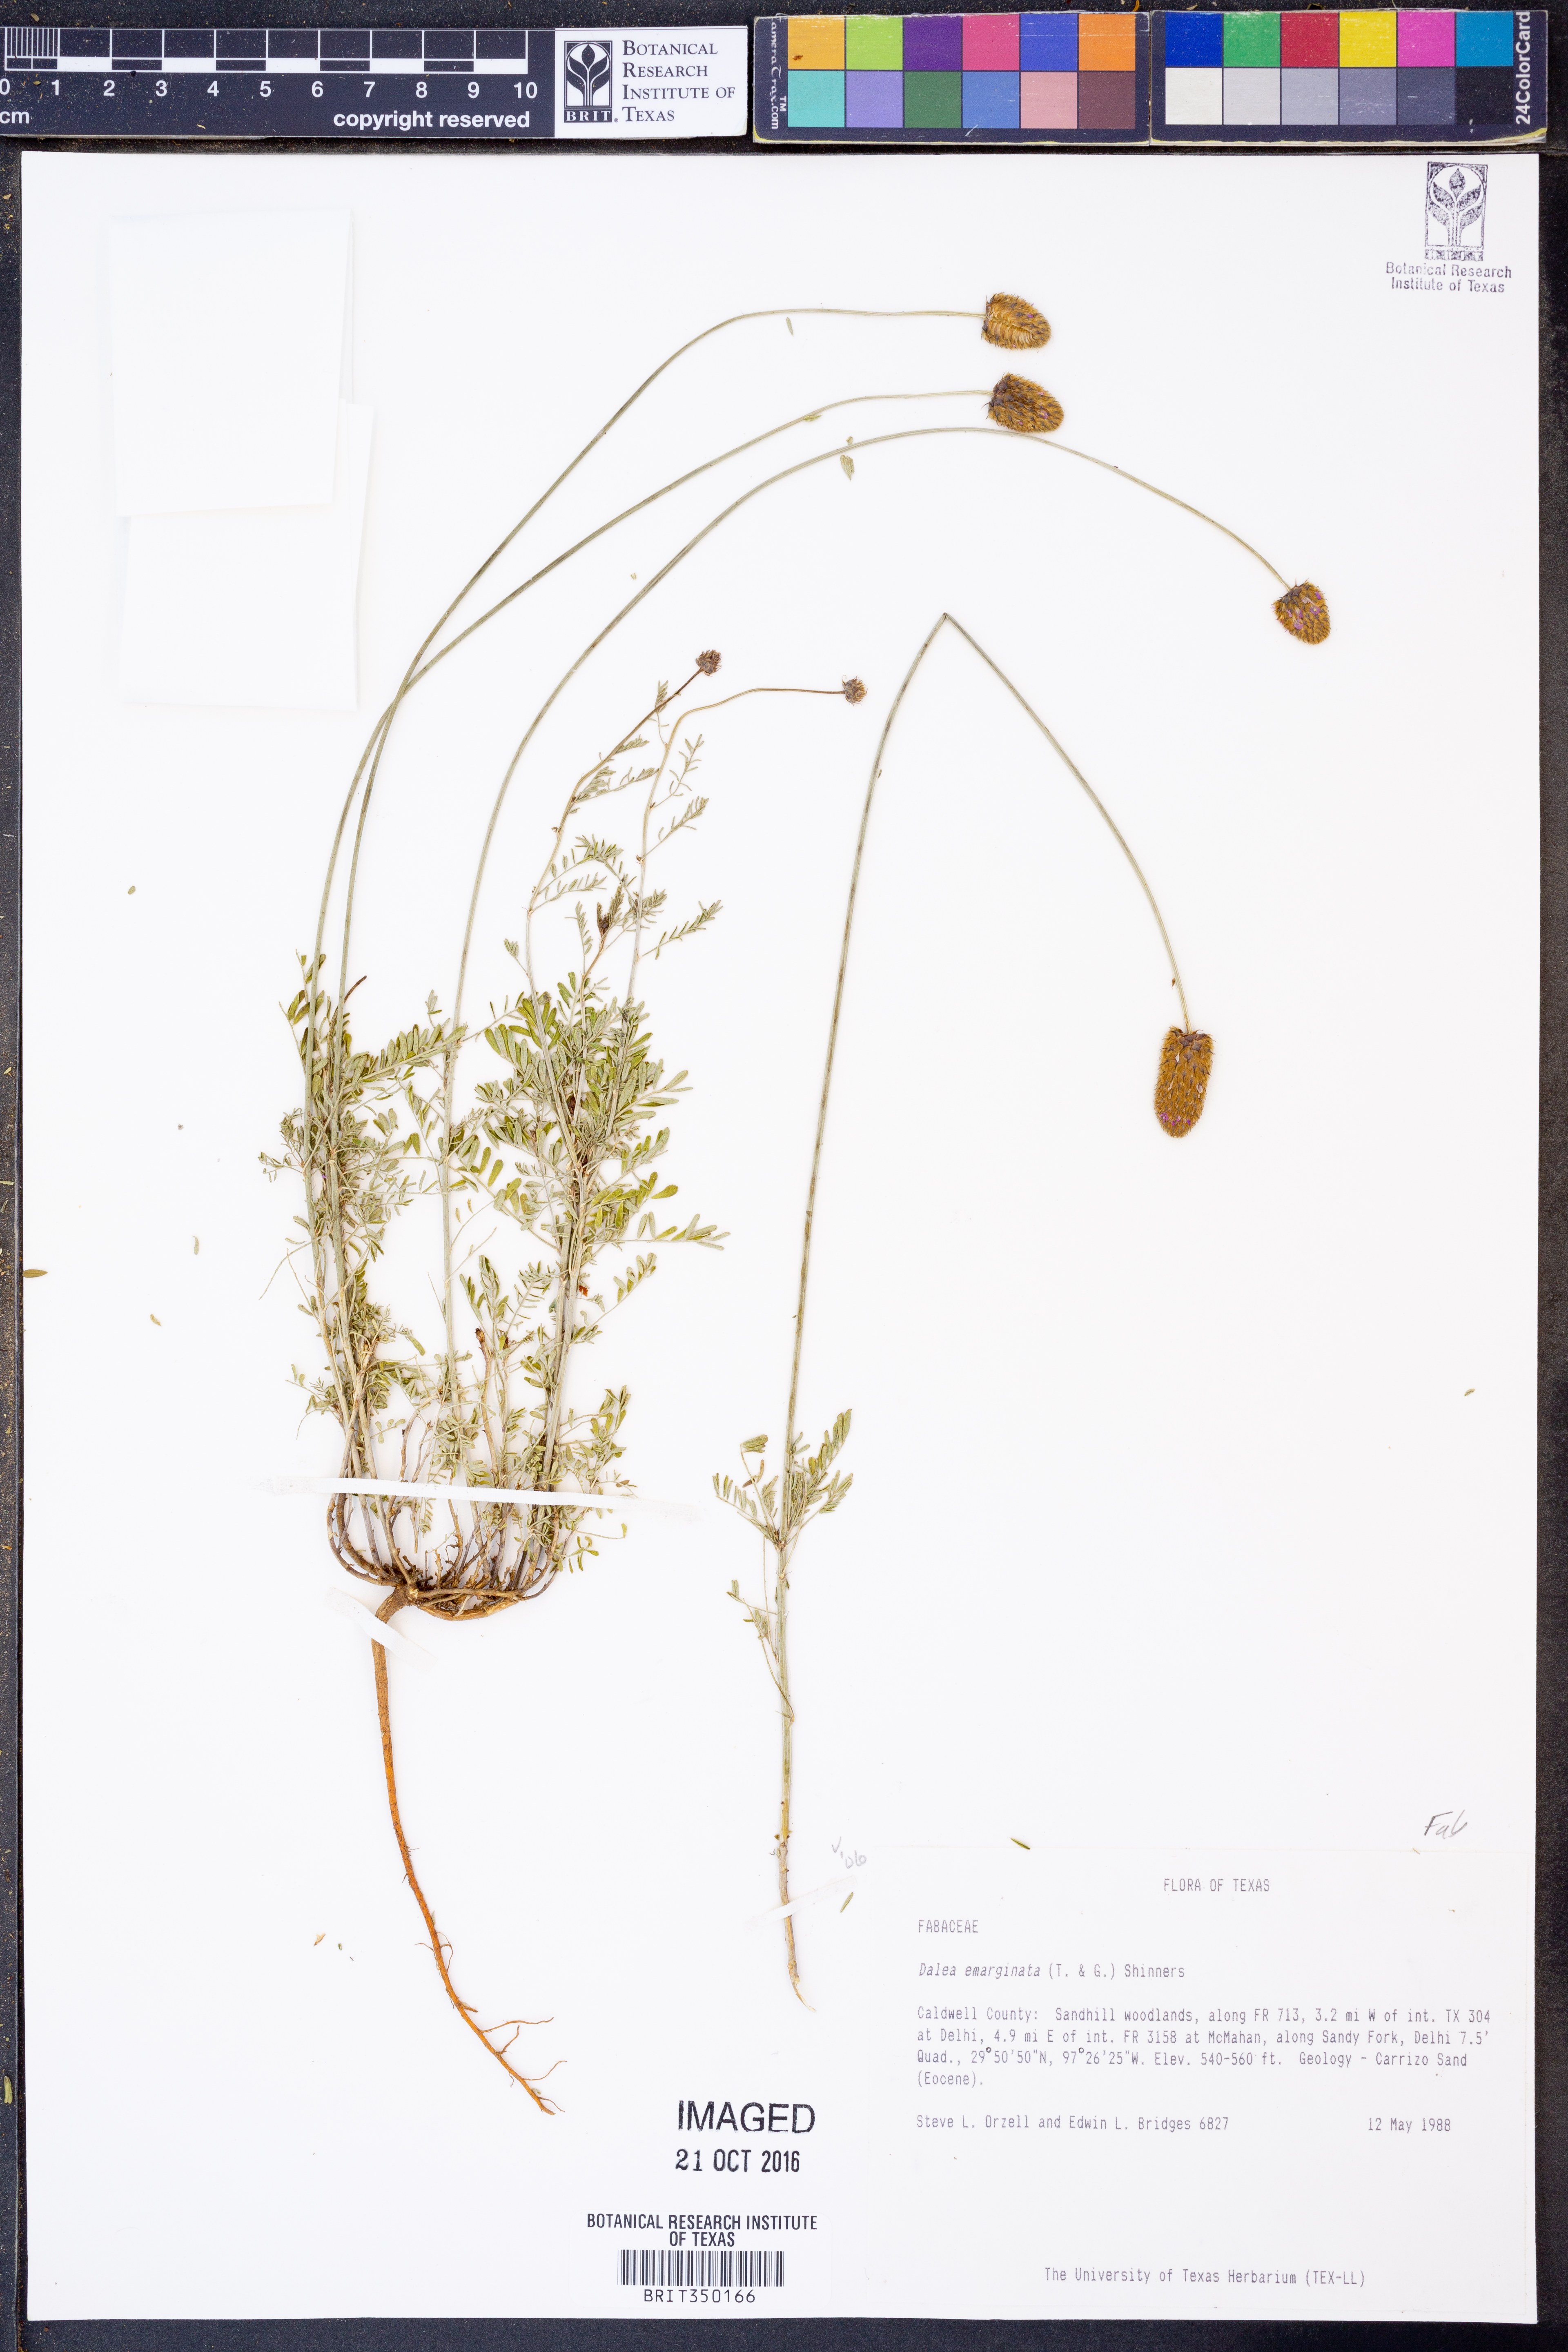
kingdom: Plantae
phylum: Tracheophyta
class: Magnoliopsida
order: Fabales
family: Fabaceae
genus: Dalea
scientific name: Dalea emarginata
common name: Wedgeleaf prairie clover
